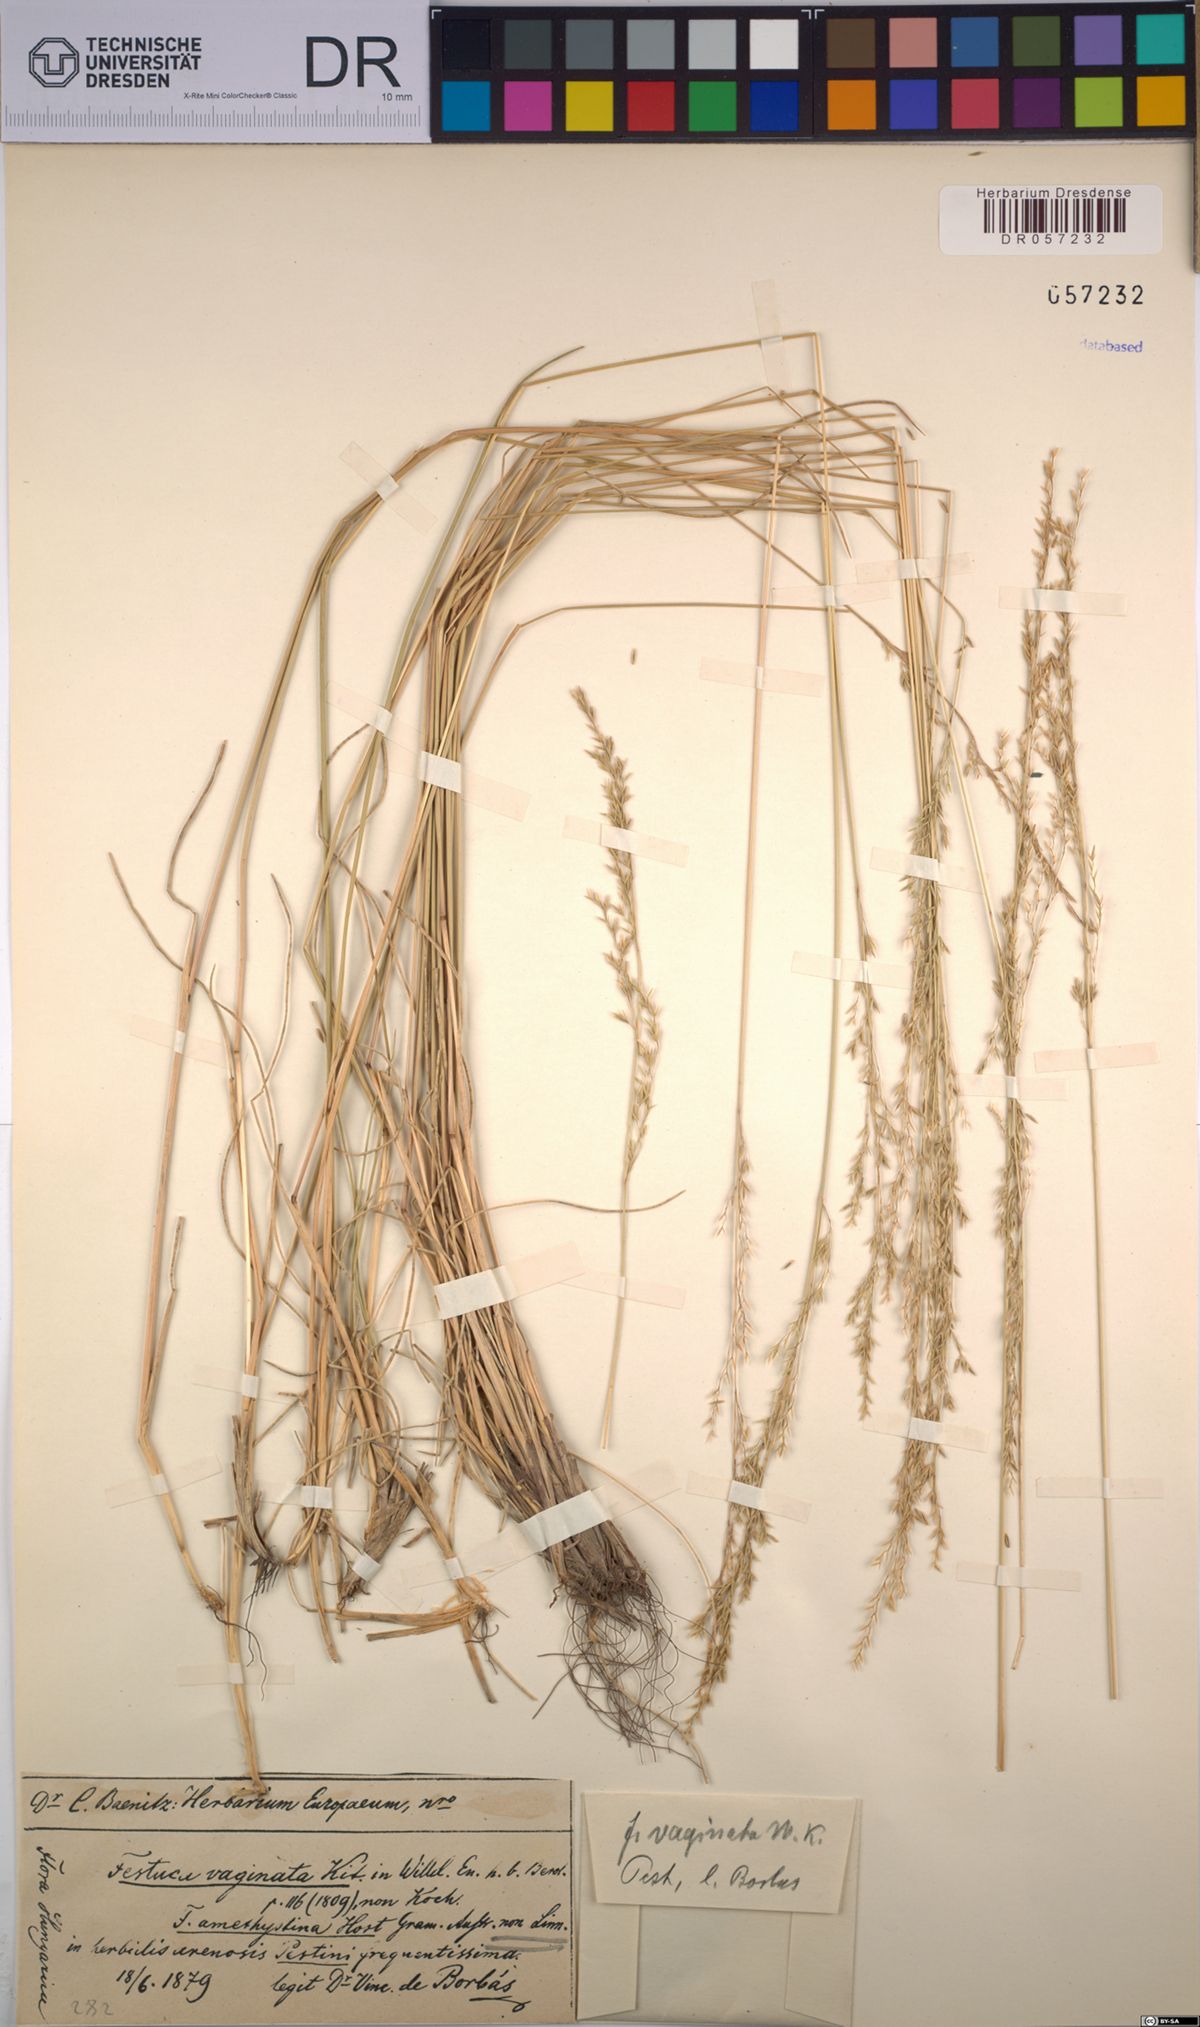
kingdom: Plantae
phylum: Tracheophyta
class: Liliopsida
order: Poales
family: Poaceae
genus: Festuca
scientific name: Festuca vaginata
